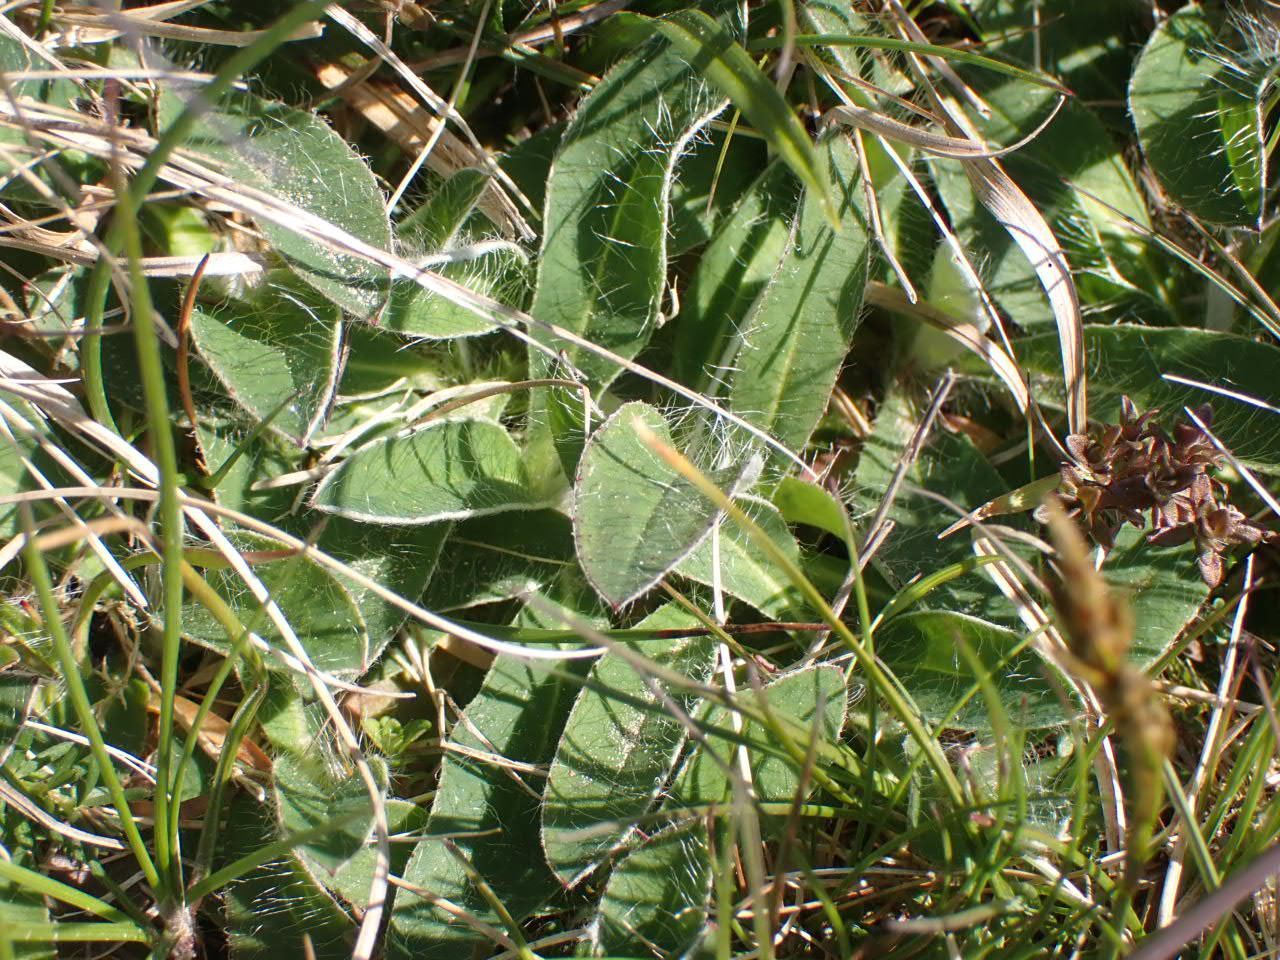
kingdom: Plantae
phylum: Tracheophyta
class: Magnoliopsida
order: Asterales
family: Asteraceae
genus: Pilosella
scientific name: Pilosella officinarum
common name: Håret høgeurt
